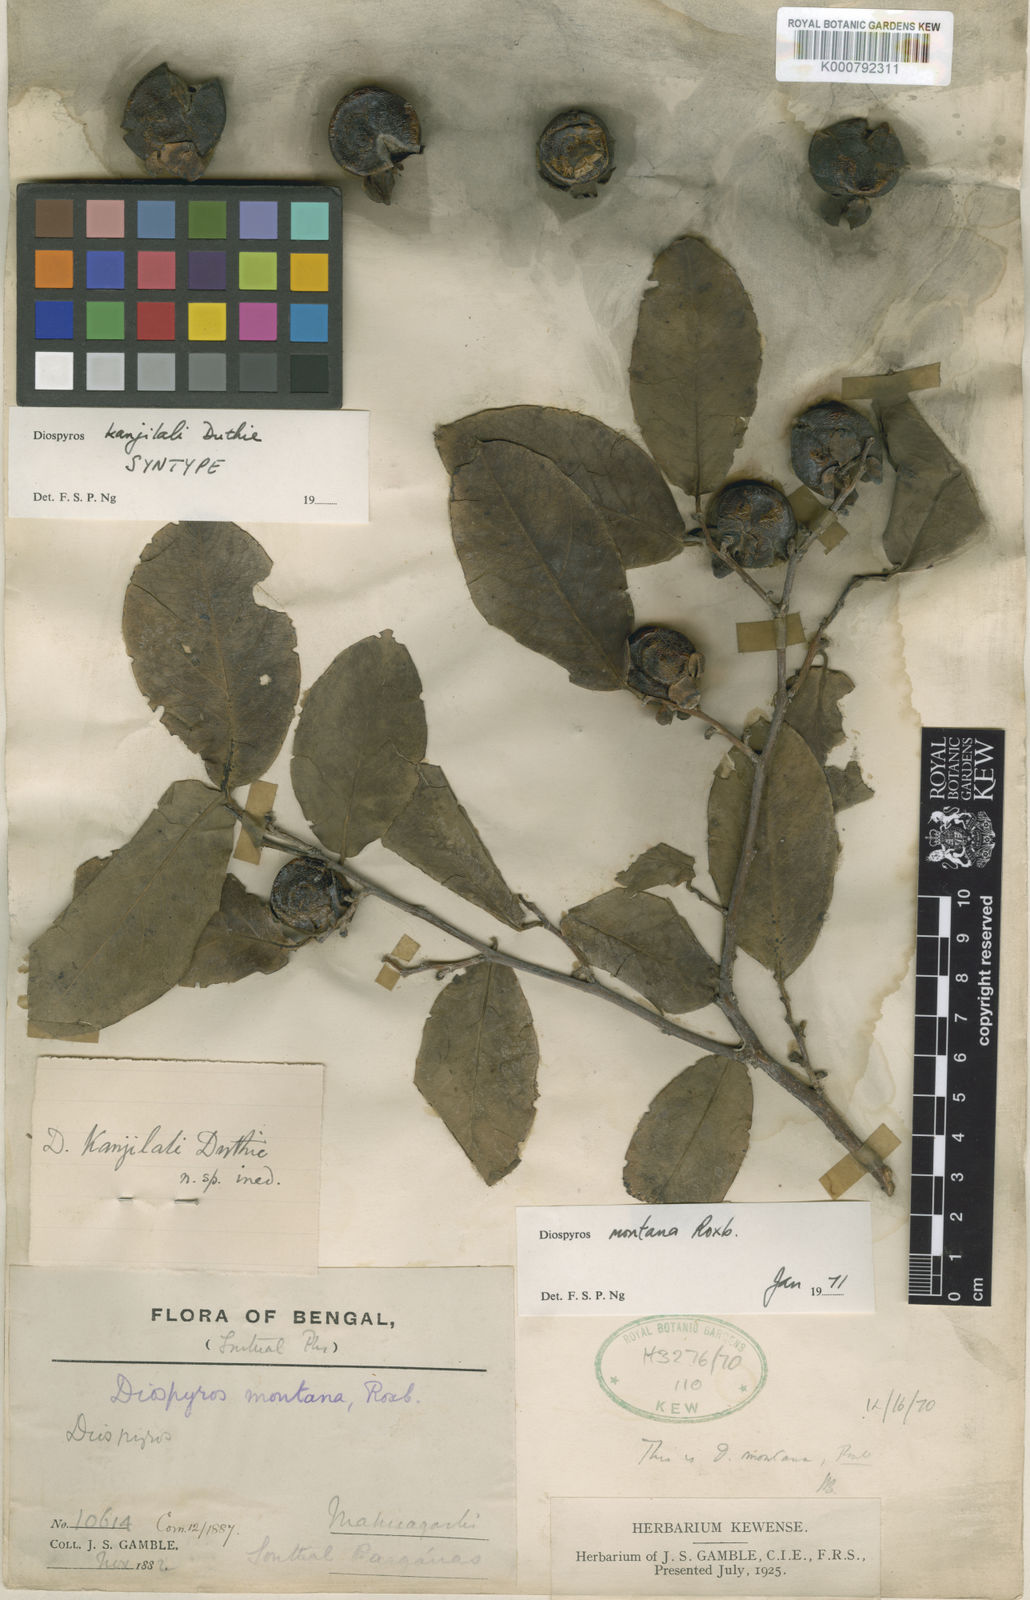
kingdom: Plantae
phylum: Tracheophyta
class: Magnoliopsida
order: Ericales
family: Ebenaceae
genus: Diospyros
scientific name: Diospyros montana
